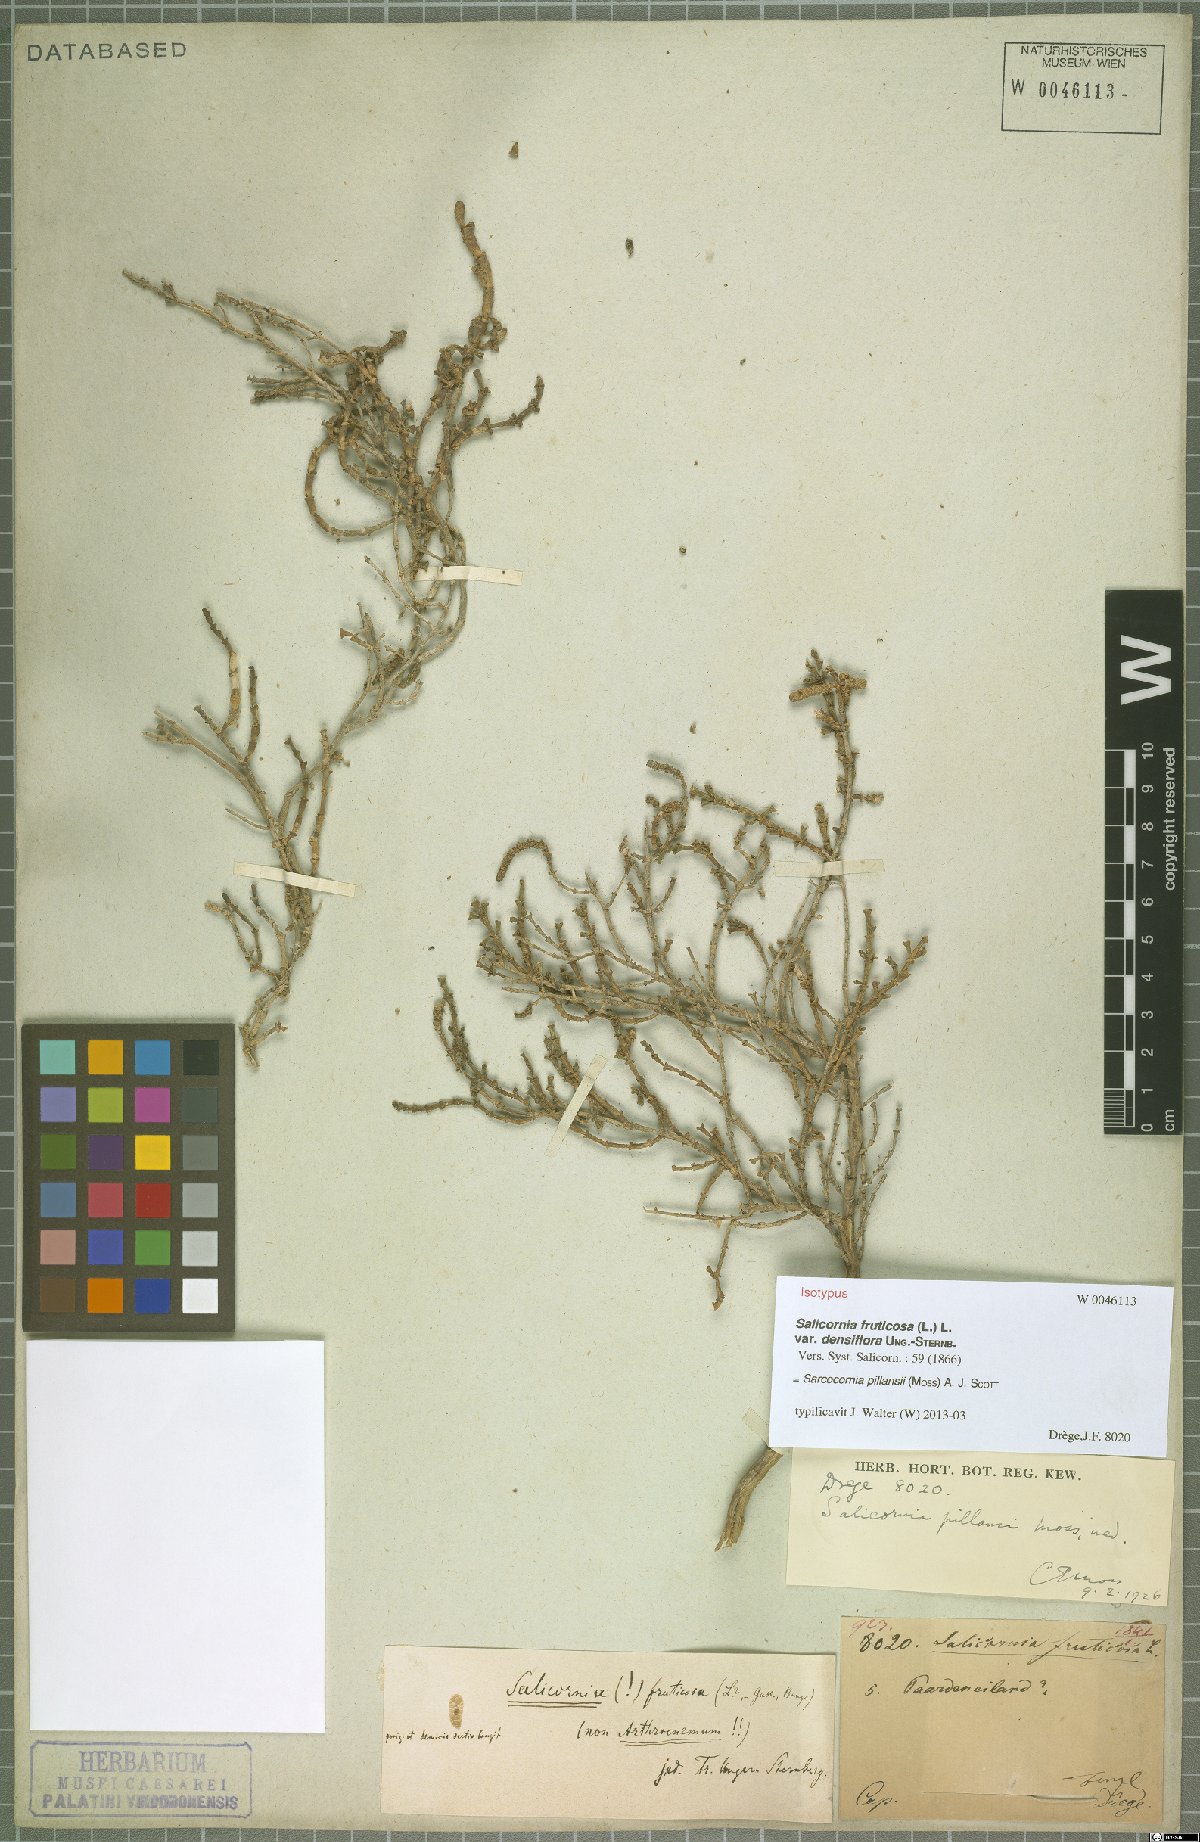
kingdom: Plantae
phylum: Tracheophyta
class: Magnoliopsida
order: Caryophyllales
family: Amaranthaceae
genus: Salicornia
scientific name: Salicornia pillansii
